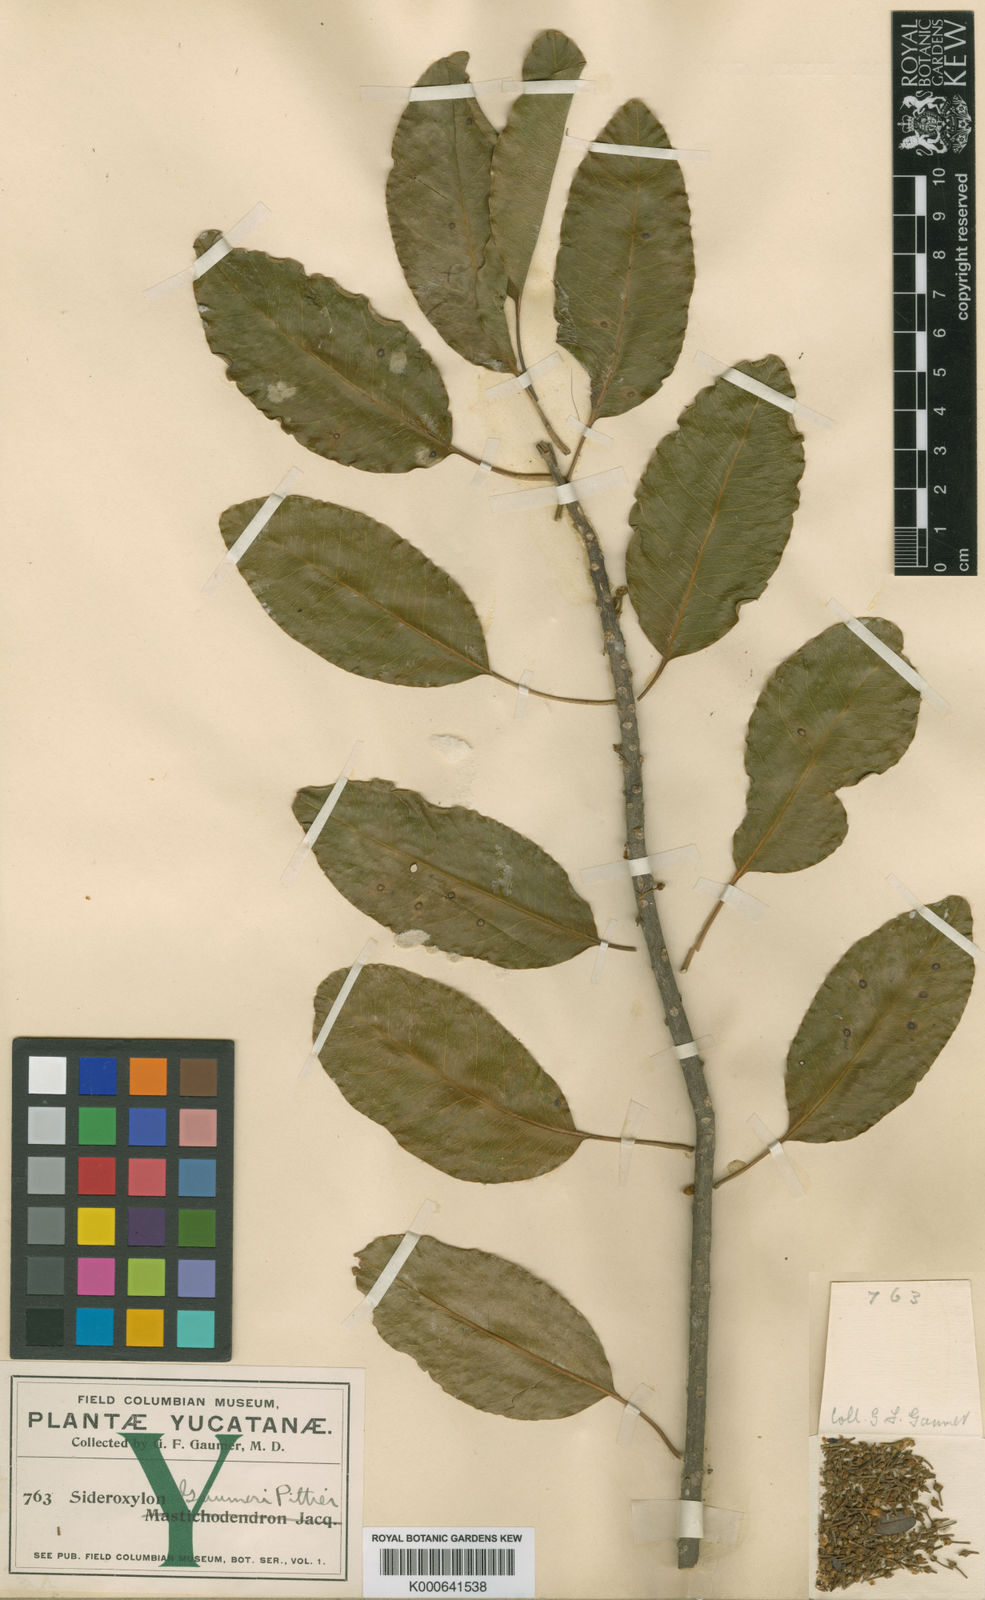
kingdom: Plantae
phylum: Tracheophyta
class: Magnoliopsida
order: Ericales
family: Sapotaceae
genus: Sideroxylon
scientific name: Sideroxylon foetidissimum
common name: Barbados-mastic
